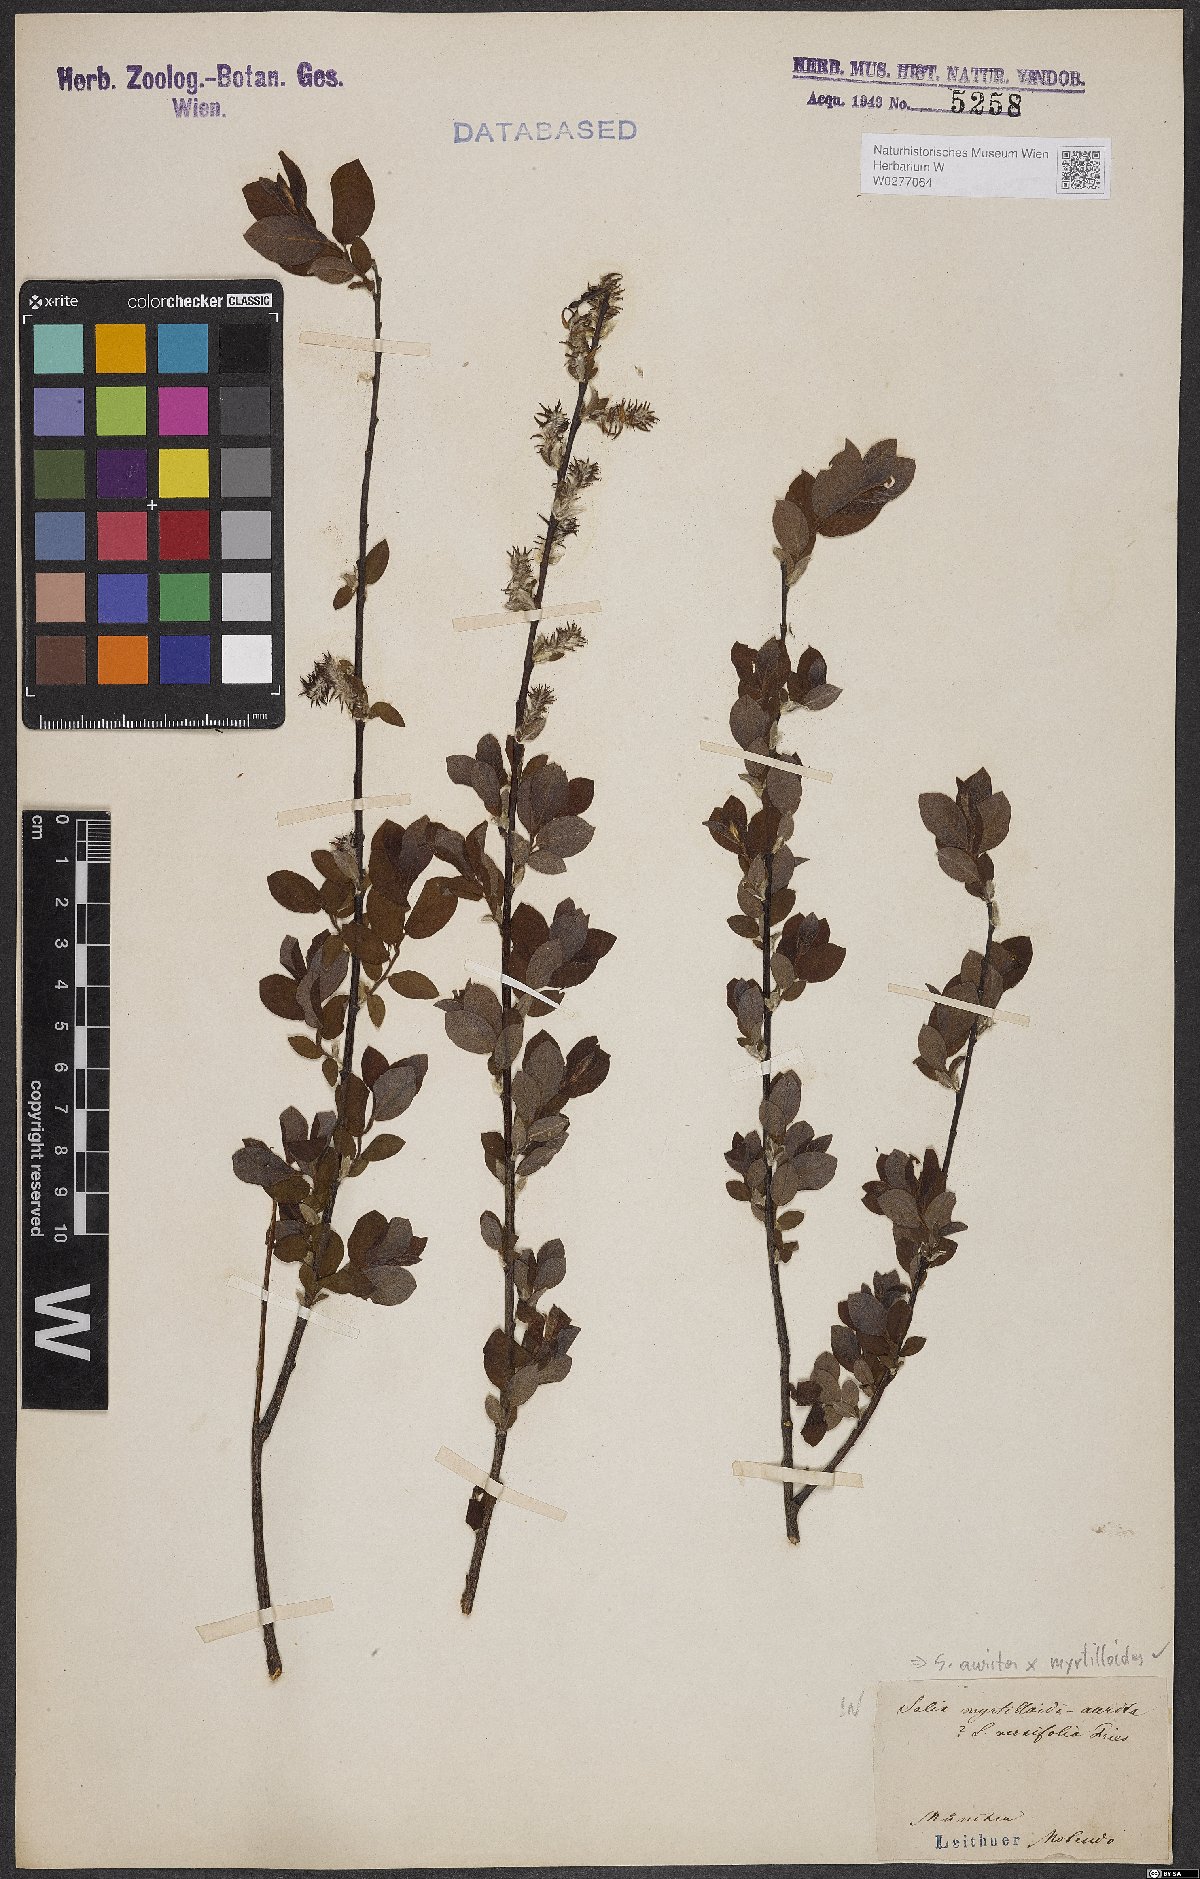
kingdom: Plantae
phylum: Tracheophyta
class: Magnoliopsida
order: Malpighiales
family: Salicaceae
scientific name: Salicaceae
